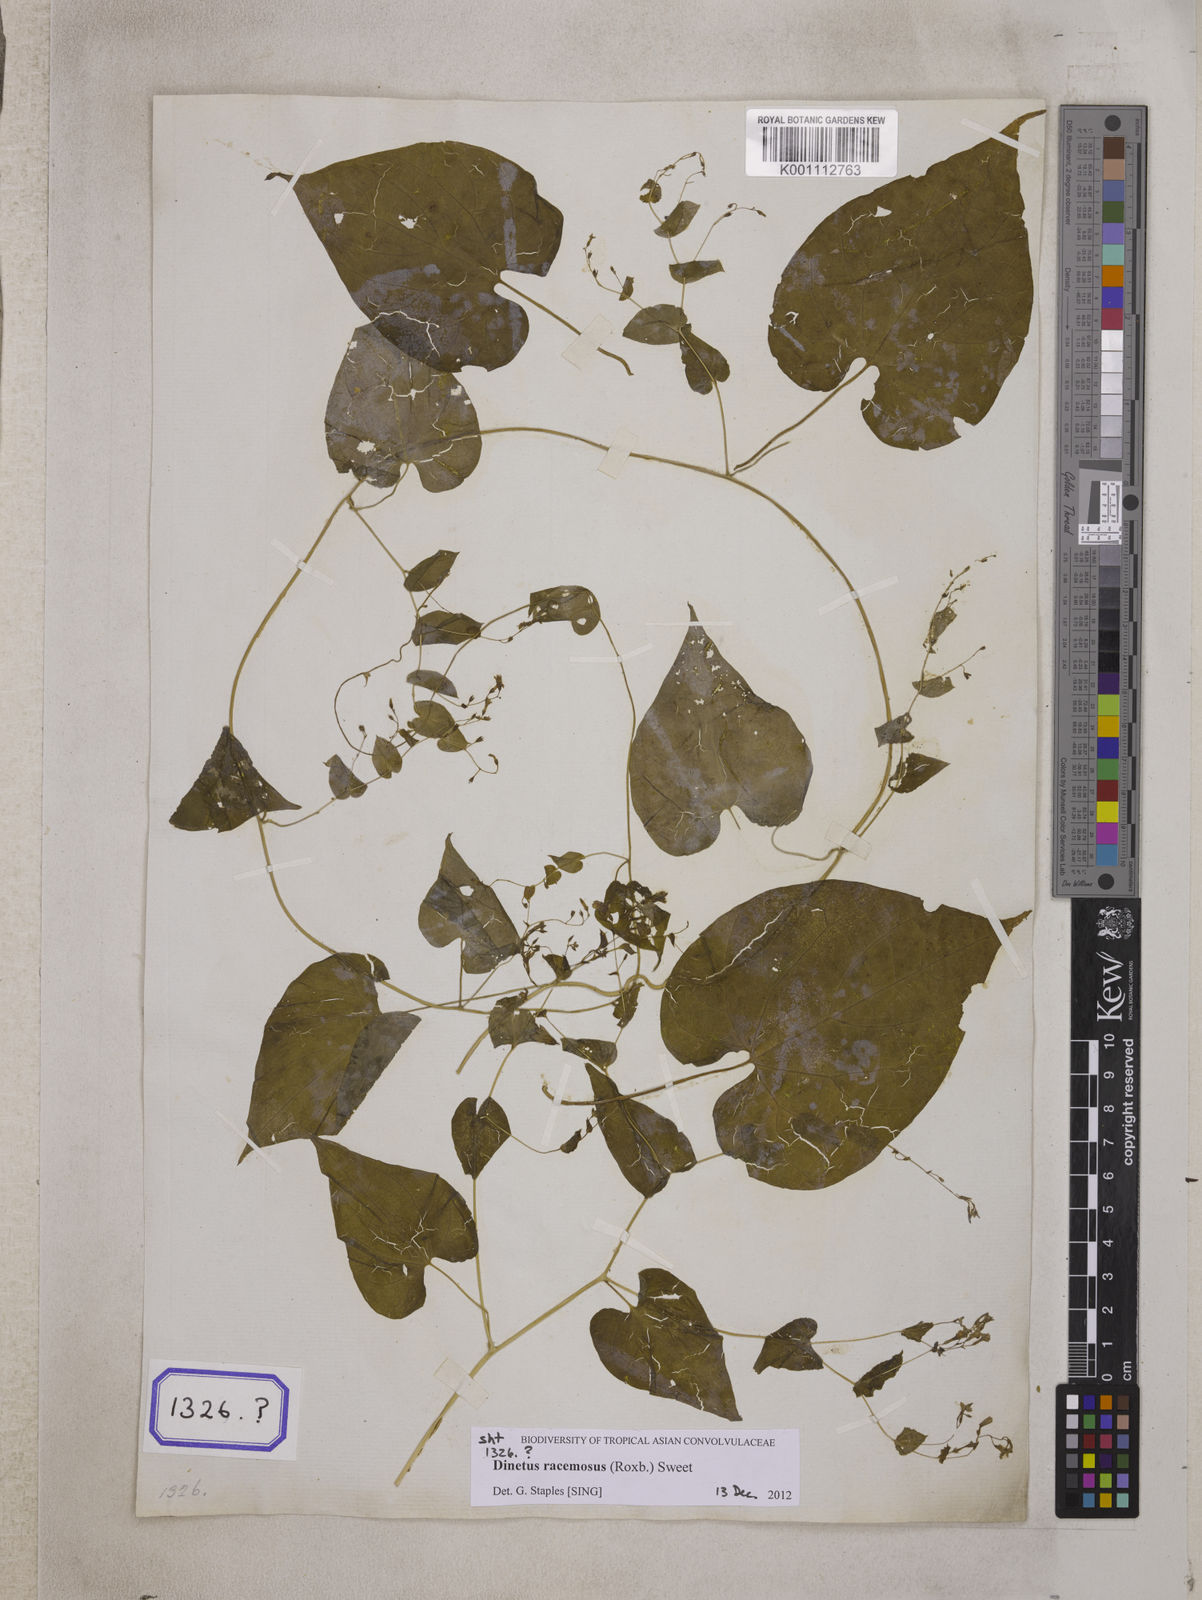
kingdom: Plantae
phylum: Tracheophyta
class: Magnoliopsida
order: Solanales
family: Convolvulaceae
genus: Porana
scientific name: Porana
